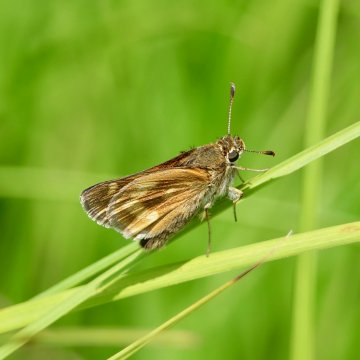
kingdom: Animalia
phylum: Arthropoda
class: Insecta
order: Lepidoptera
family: Hesperiidae
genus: Polites
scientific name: Polites
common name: Long Dash Skipper
